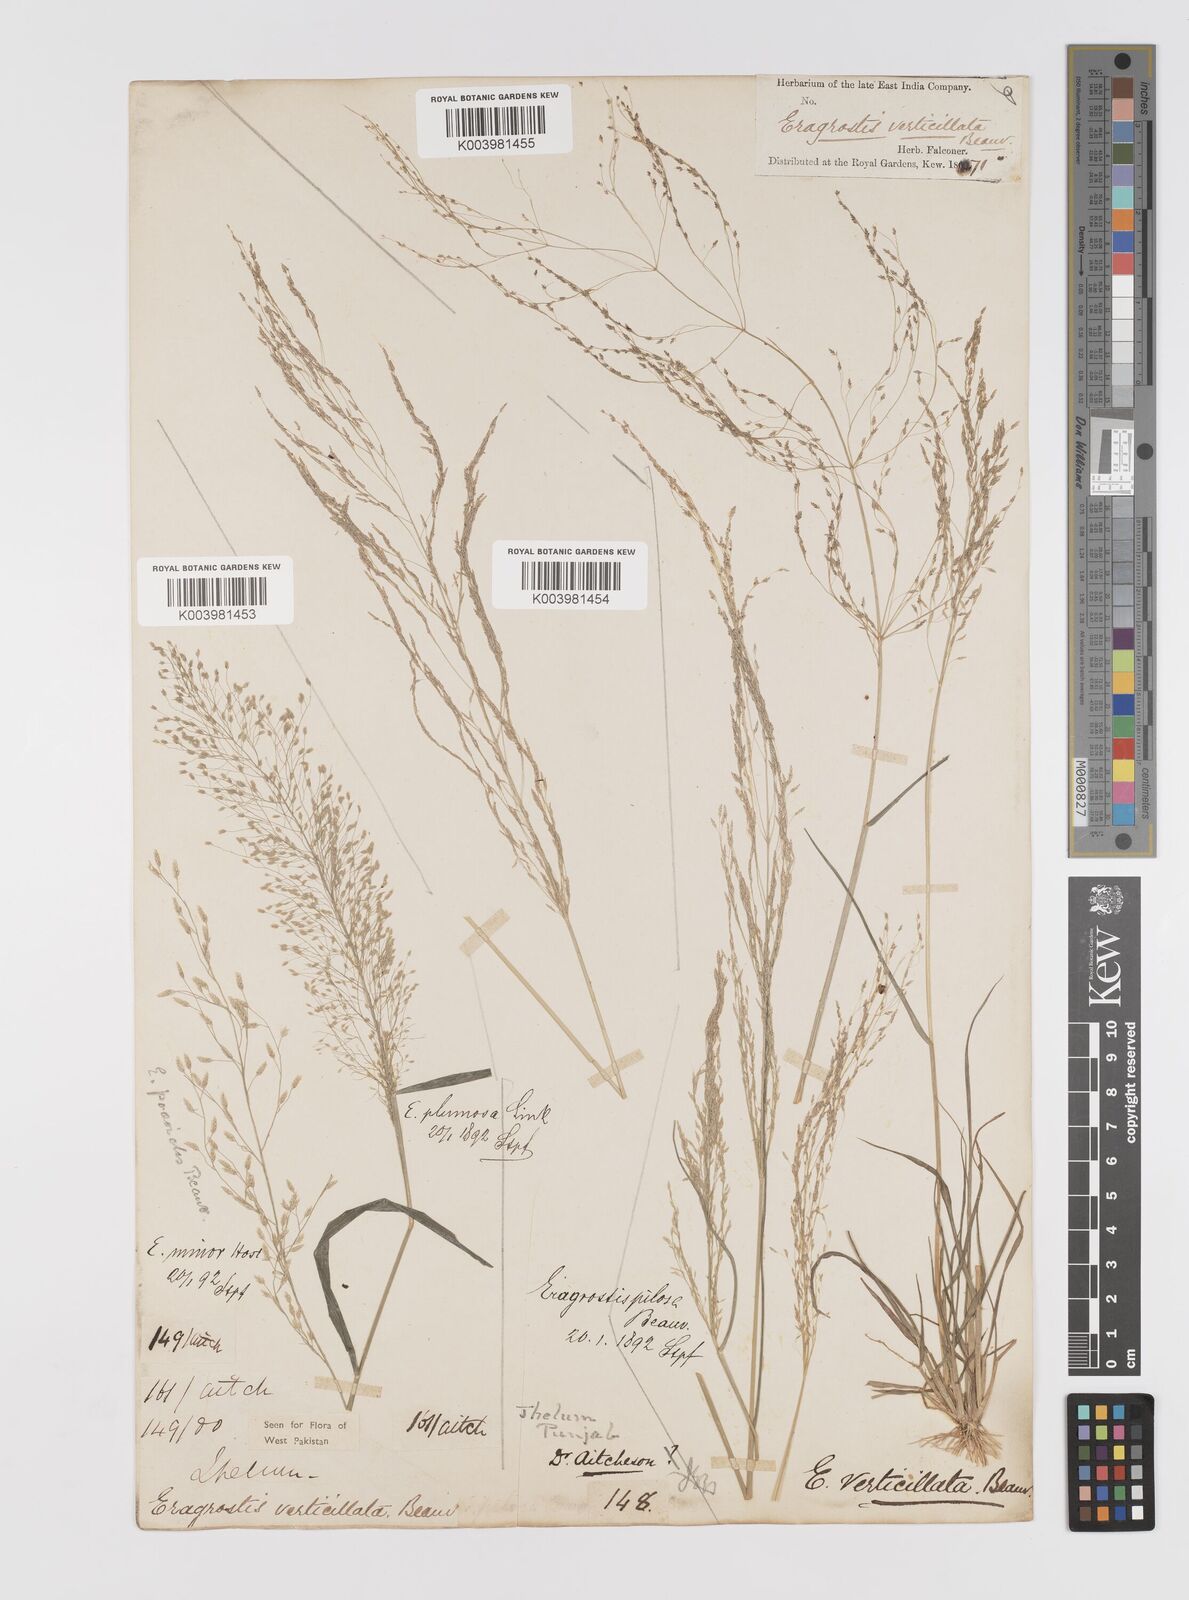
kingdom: Plantae
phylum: Tracheophyta
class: Liliopsida
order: Poales
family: Poaceae
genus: Eragrostis
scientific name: Eragrostis pilosa
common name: Indian lovegrass
